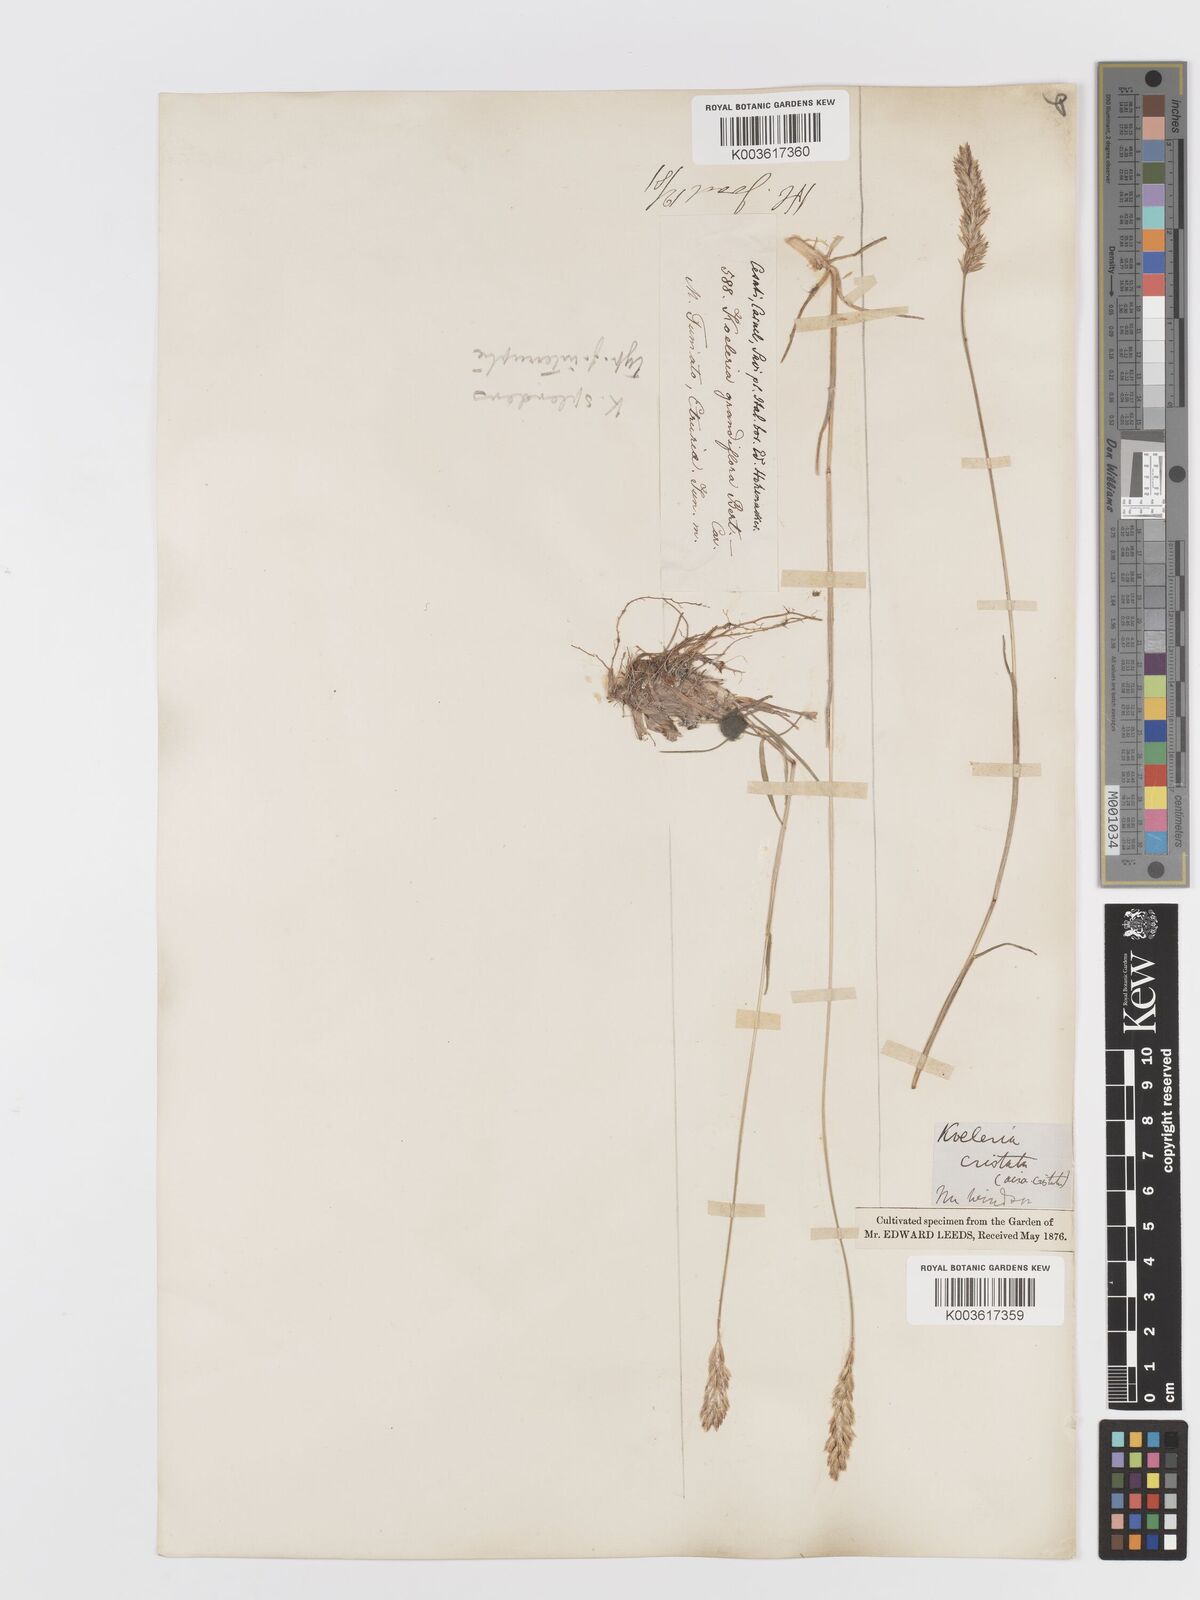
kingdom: Plantae
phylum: Tracheophyta
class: Liliopsida
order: Poales
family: Poaceae
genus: Koeleria
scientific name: Koeleria splendens
